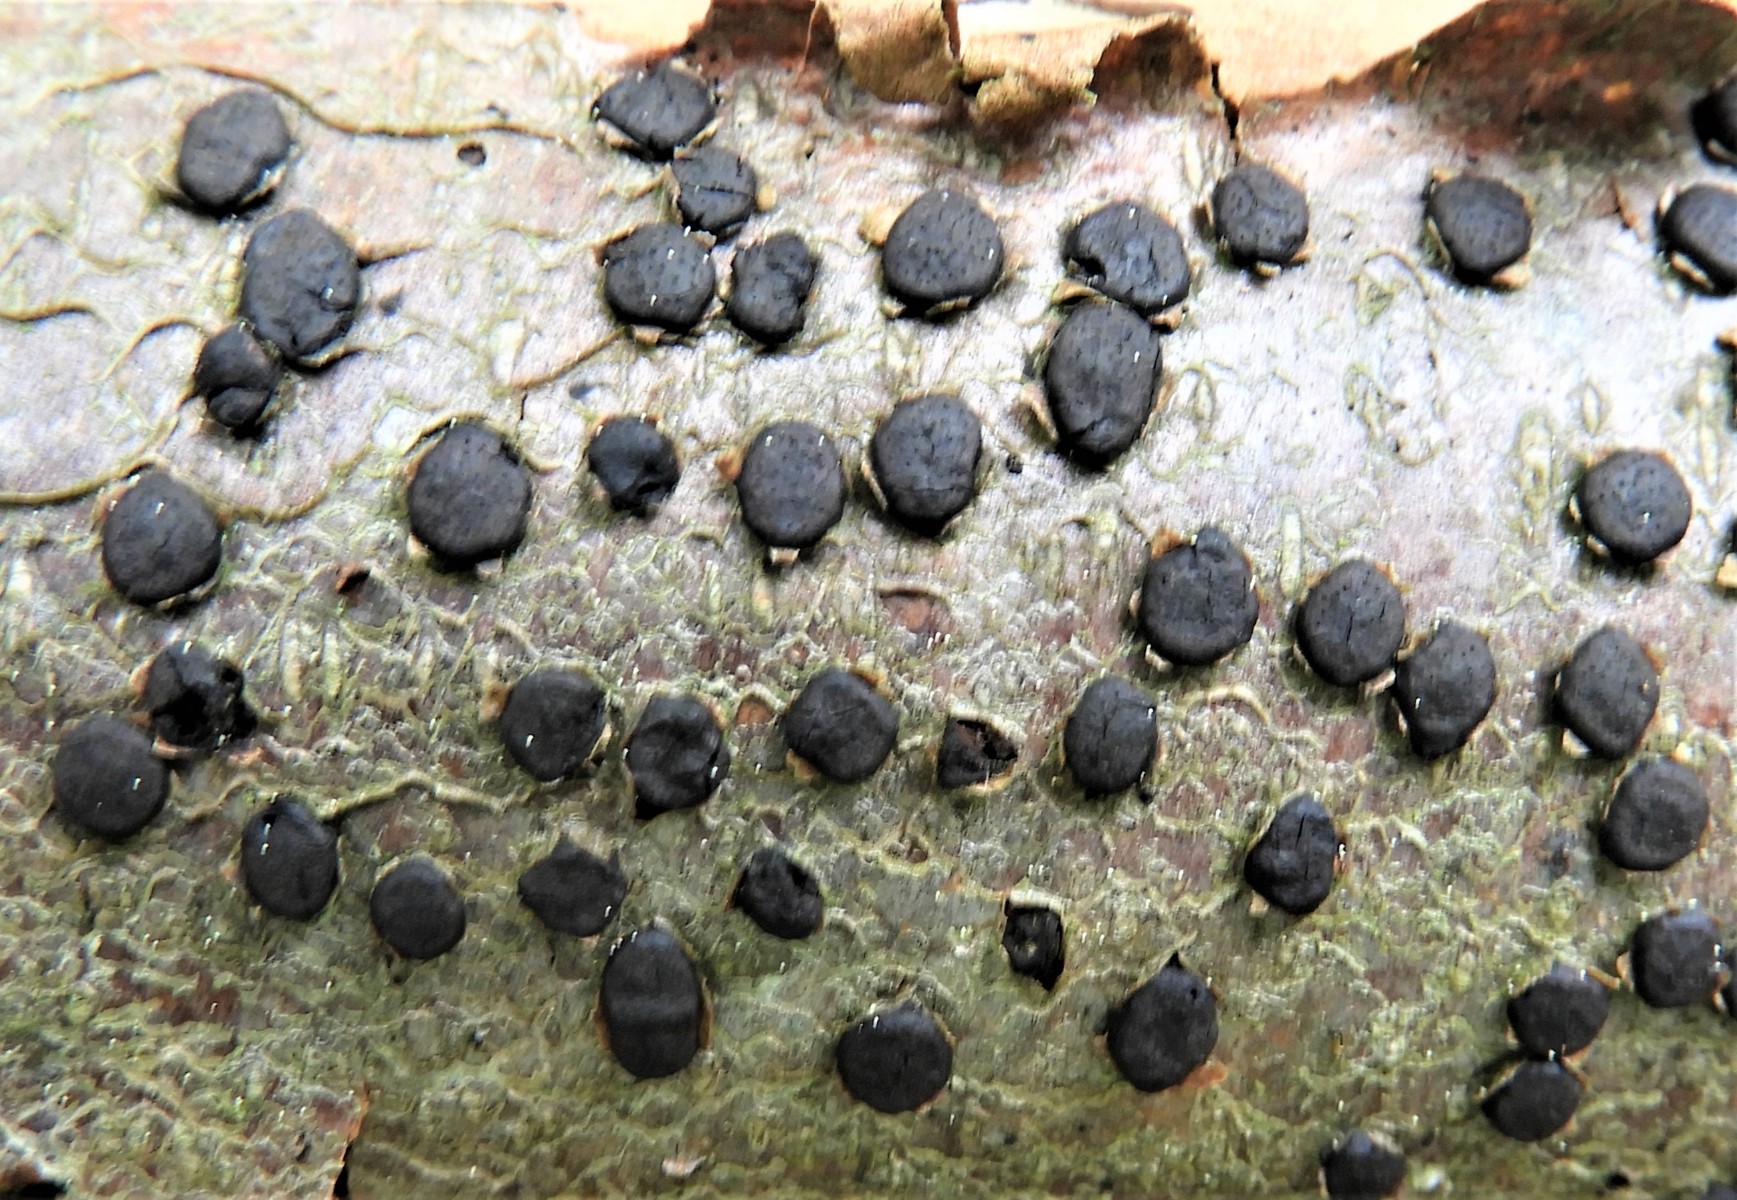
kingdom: Fungi
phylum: Ascomycota
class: Sordariomycetes
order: Xylariales
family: Diatrypaceae
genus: Diatrype
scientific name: Diatrype disciformis
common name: kant-kulskorpe
